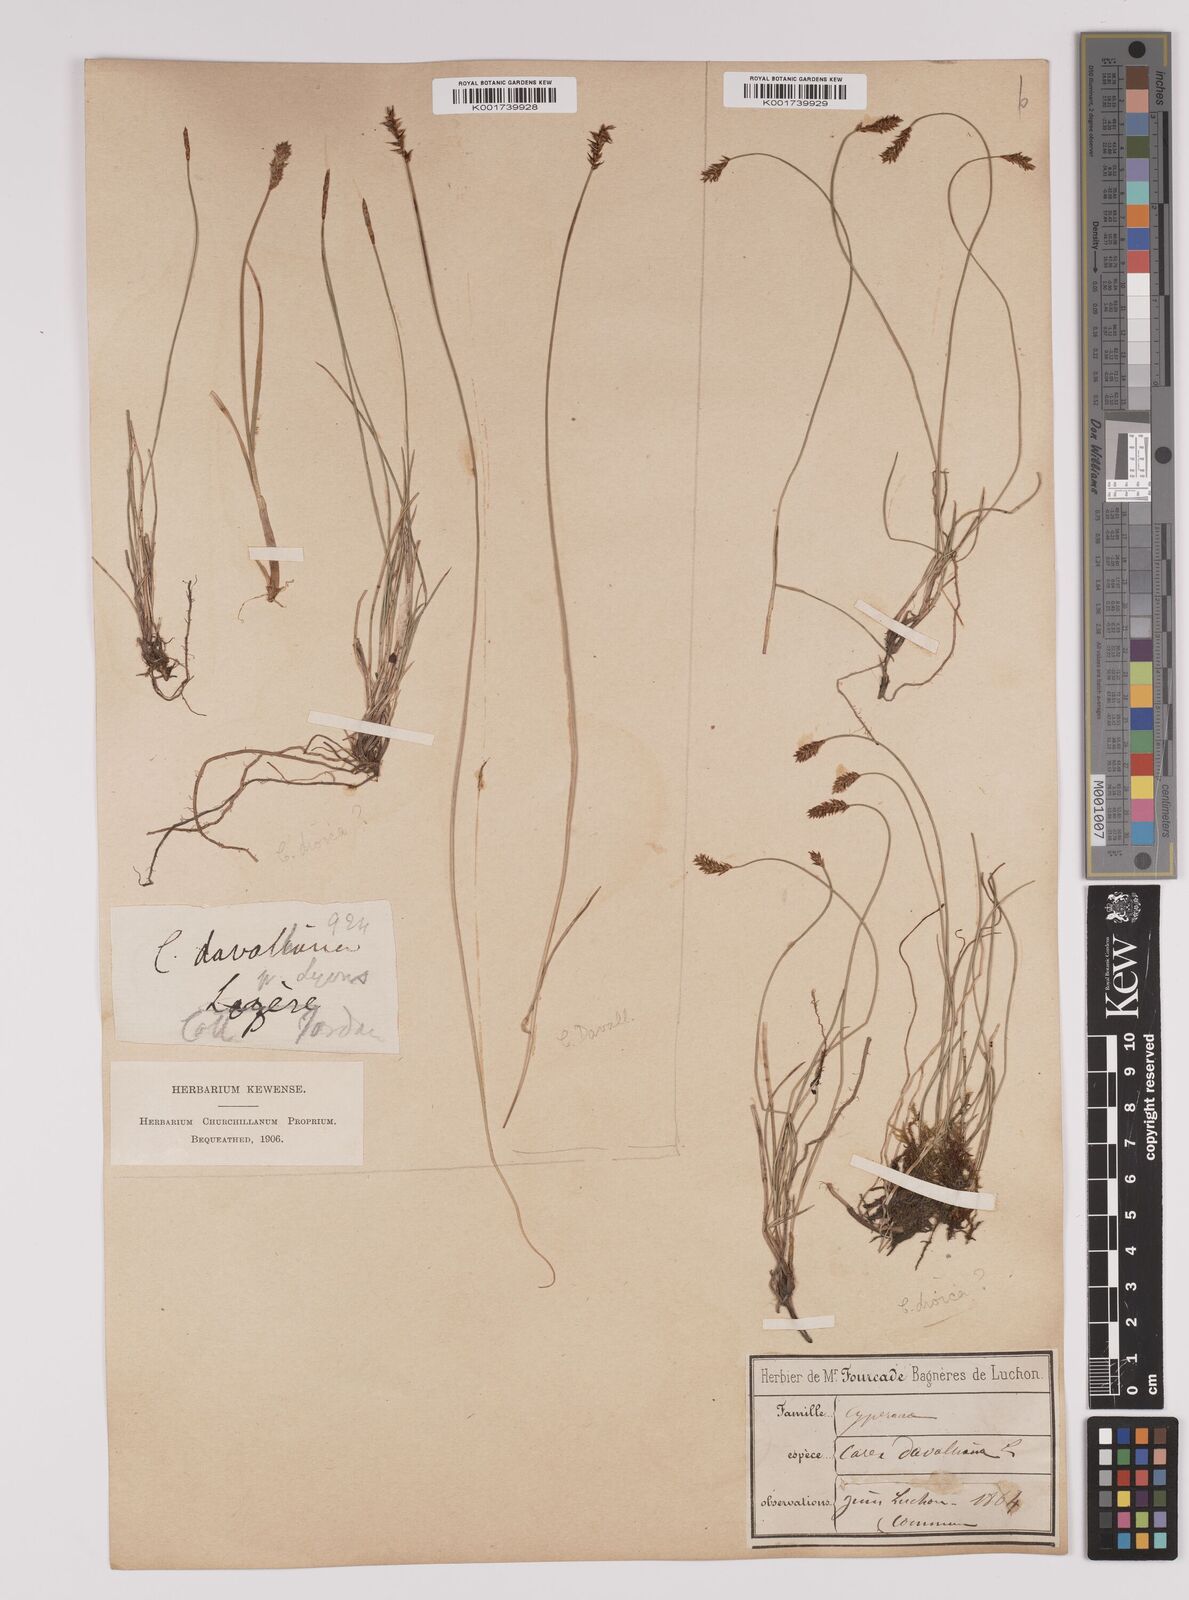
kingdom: Plantae
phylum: Tracheophyta
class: Liliopsida
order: Poales
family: Cyperaceae
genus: Carex
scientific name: Carex davalliana
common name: Davall's sedge
